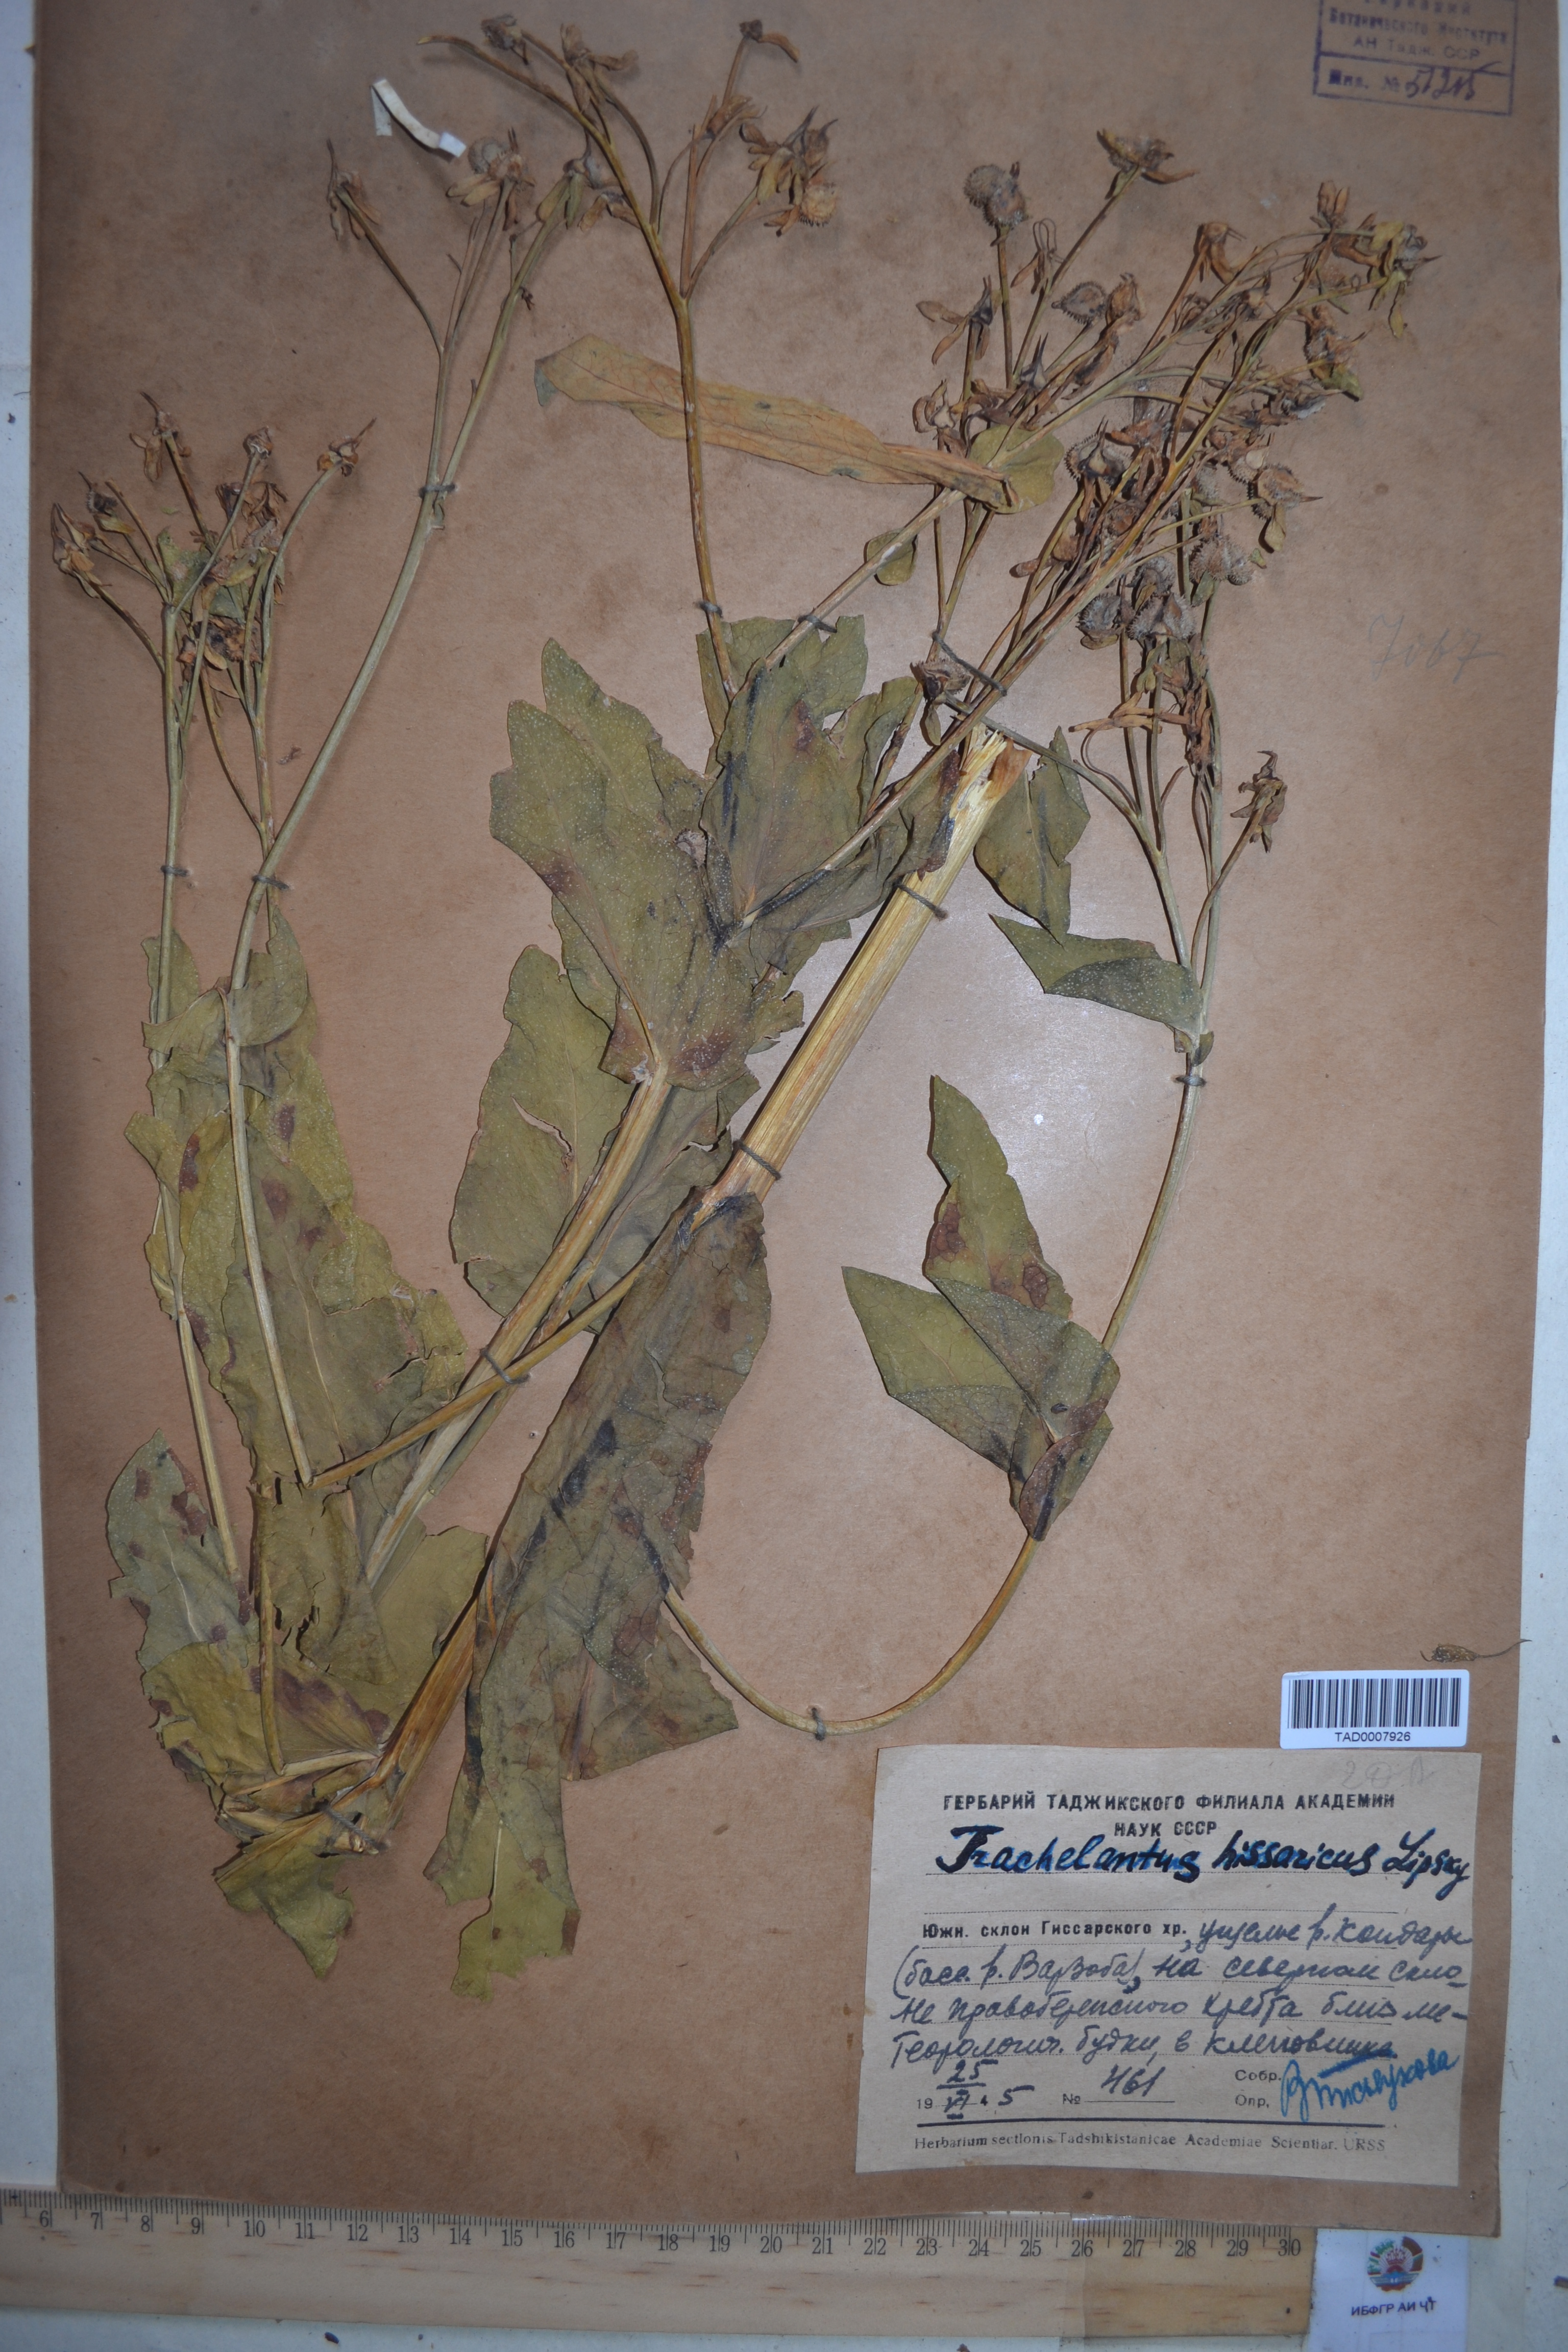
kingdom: Plantae
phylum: Tracheophyta
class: Magnoliopsida
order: Boraginales
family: Boraginaceae
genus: Lindelofia
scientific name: Lindelofia hissarica
